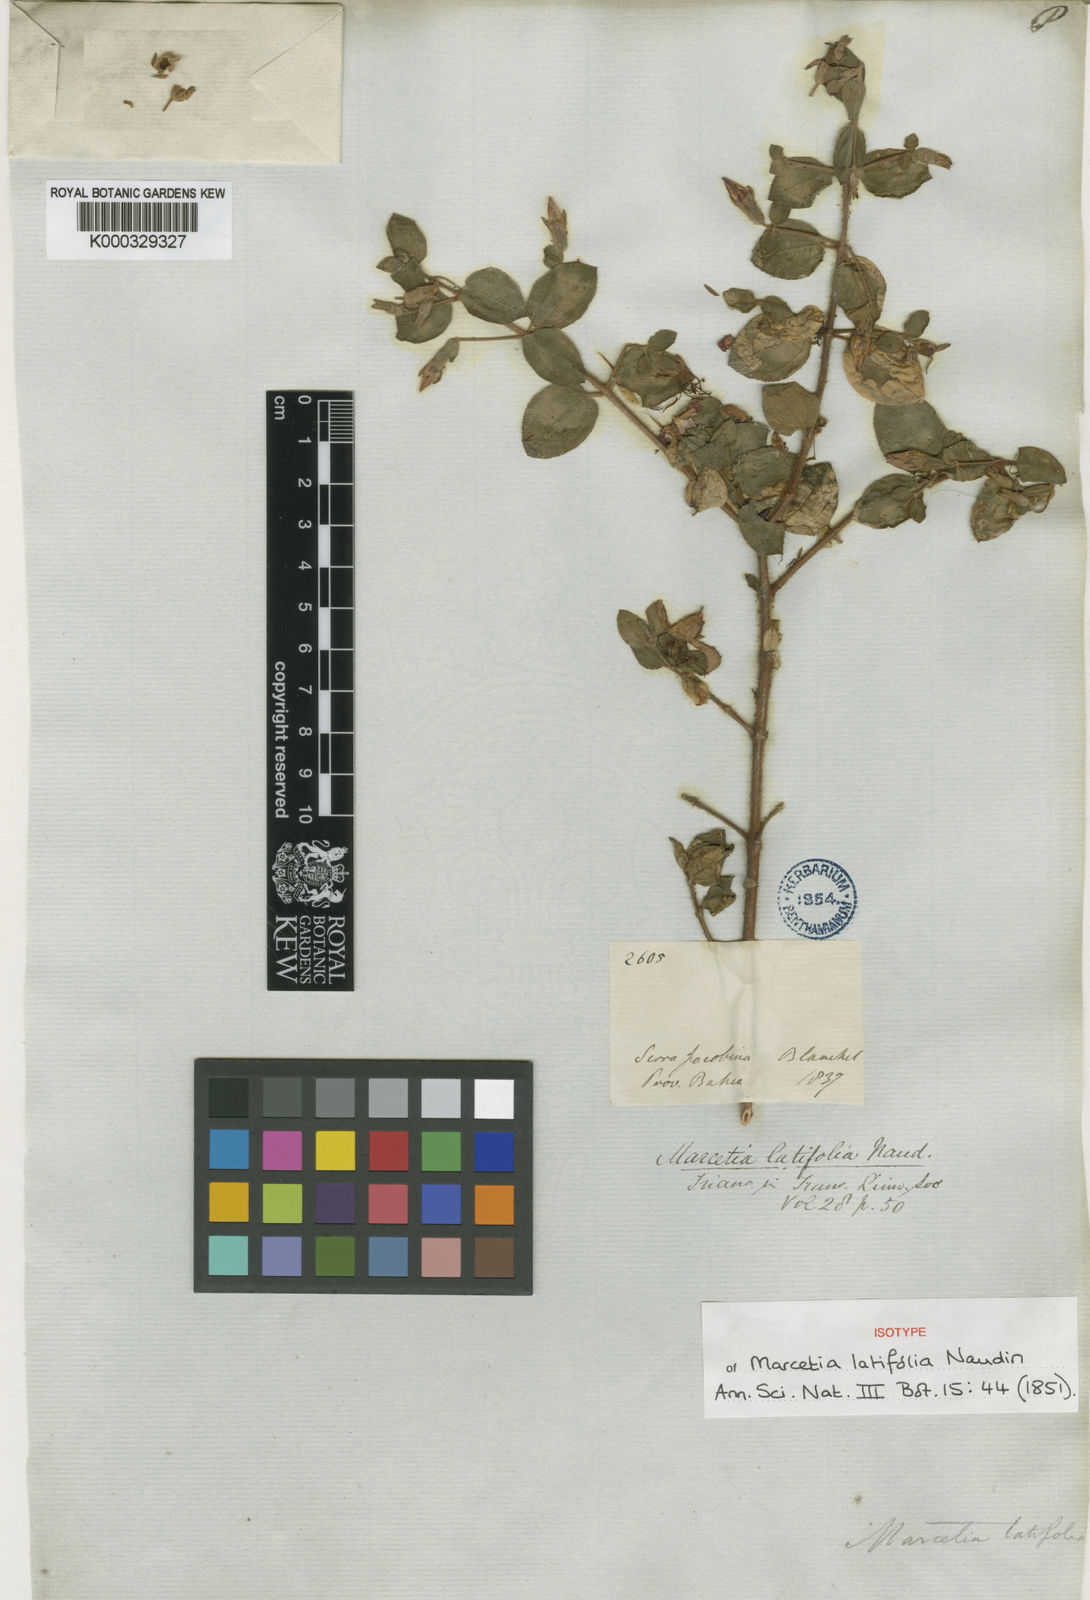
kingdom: Plantae
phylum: Tracheophyta
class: Magnoliopsida
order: Myrtales
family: Melastomataceae
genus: Marcetia
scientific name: Marcetia latifolia
